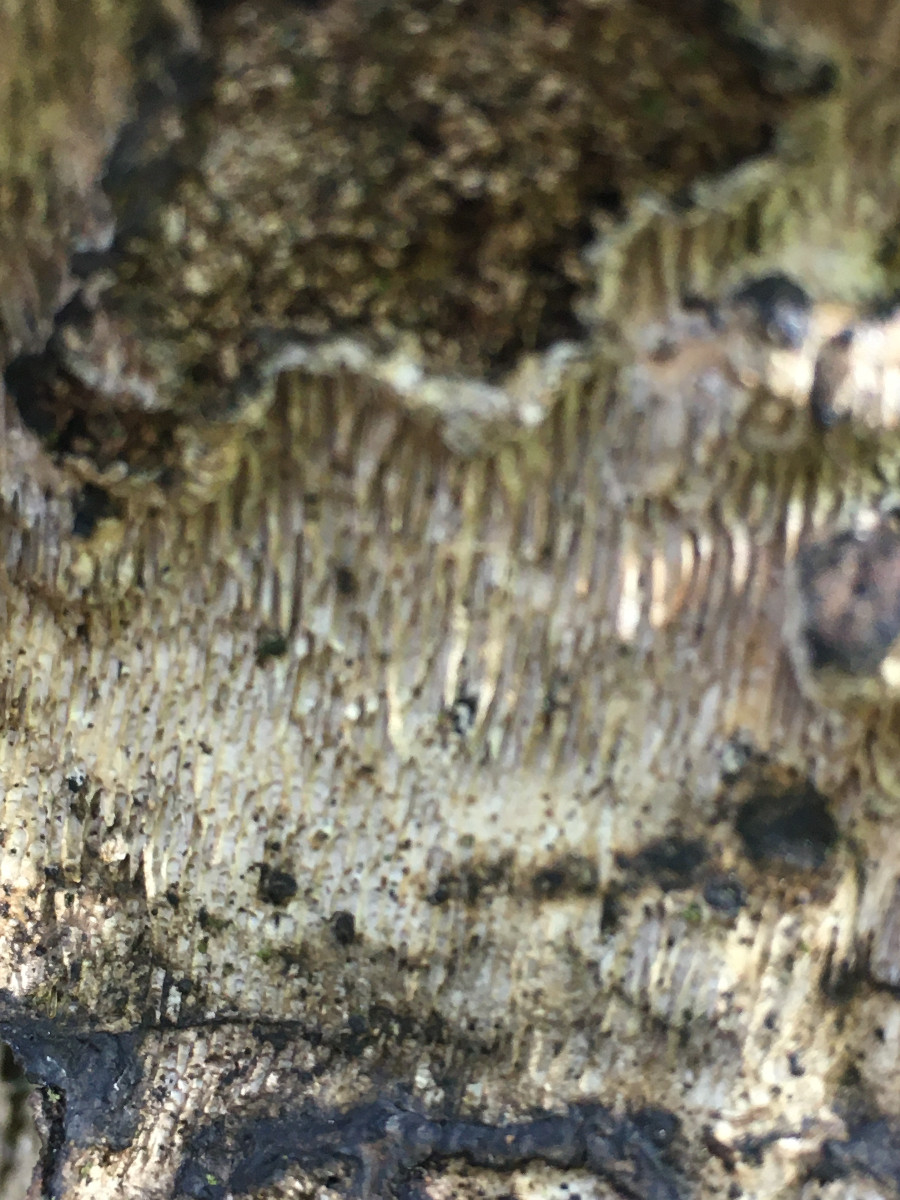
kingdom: Fungi
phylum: Basidiomycota
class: Agaricomycetes
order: Polyporales
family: Polyporaceae
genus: Podofomes
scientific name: Podofomes mollis
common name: blød begporesvamp
